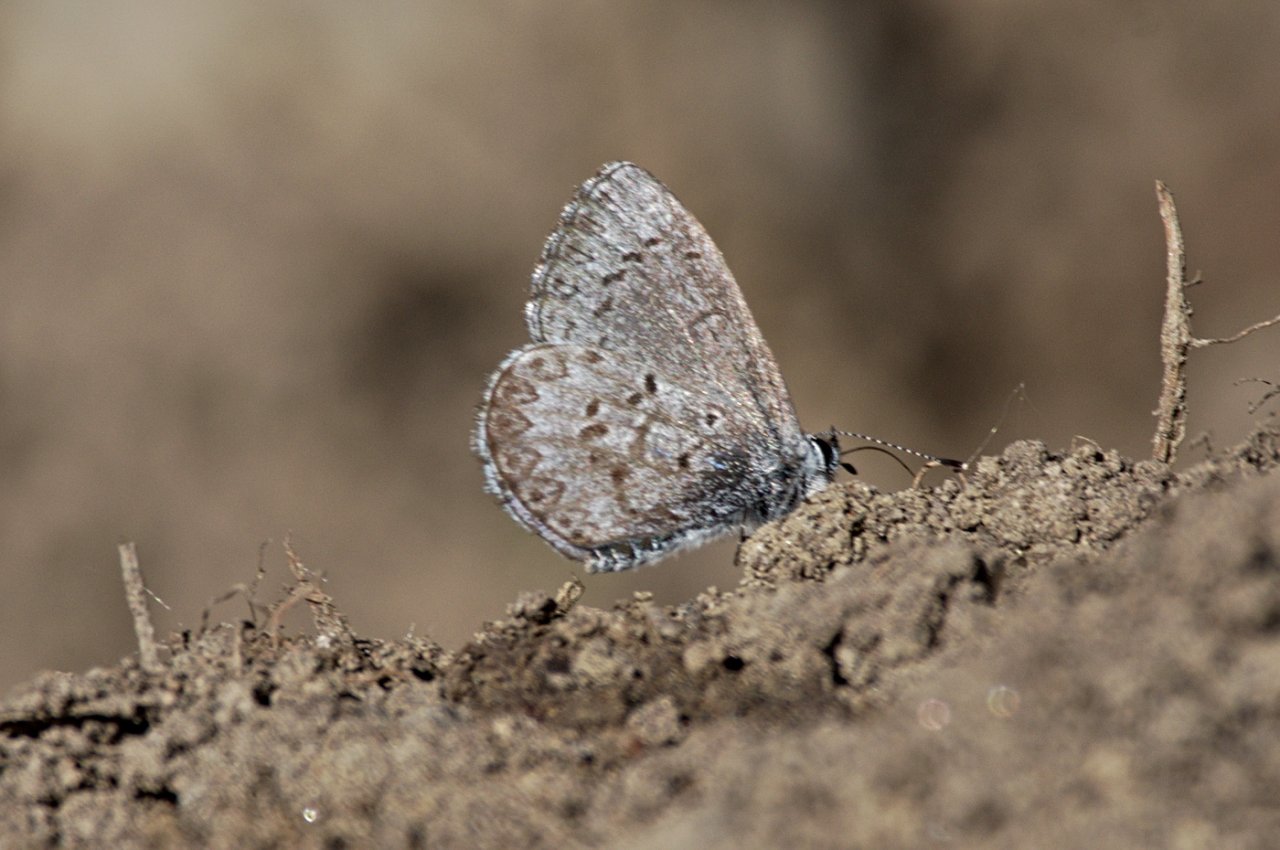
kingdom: Animalia
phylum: Arthropoda
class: Insecta
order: Lepidoptera
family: Lycaenidae
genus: Celastrina
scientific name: Celastrina lucia
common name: Northern Spring Azure
